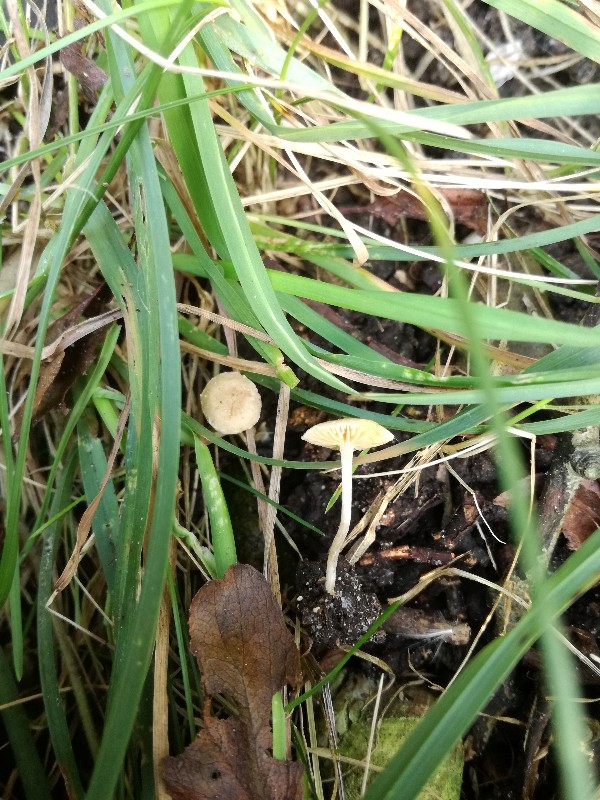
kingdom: Fungi
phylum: Basidiomycota
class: Agaricomycetes
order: Agaricales
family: Tubariaceae
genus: Tubaria
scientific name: Tubaria dispersa
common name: tjørne-fnughat
